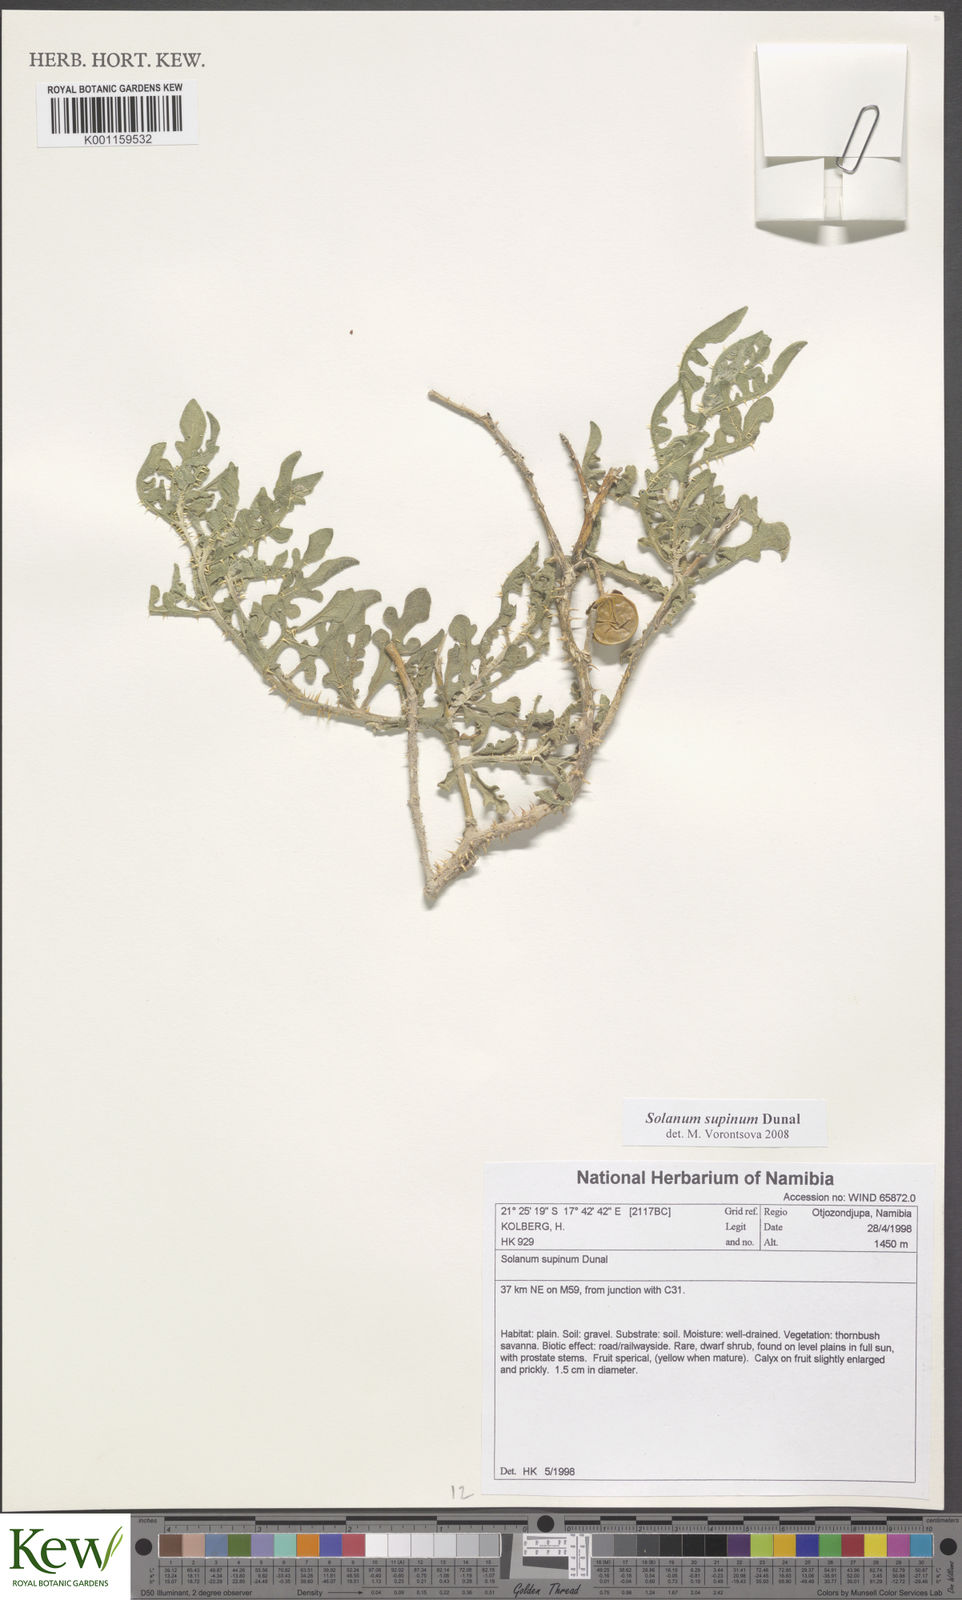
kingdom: Plantae
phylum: Tracheophyta
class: Magnoliopsida
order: Solanales
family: Solanaceae
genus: Solanum
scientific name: Solanum supinum
